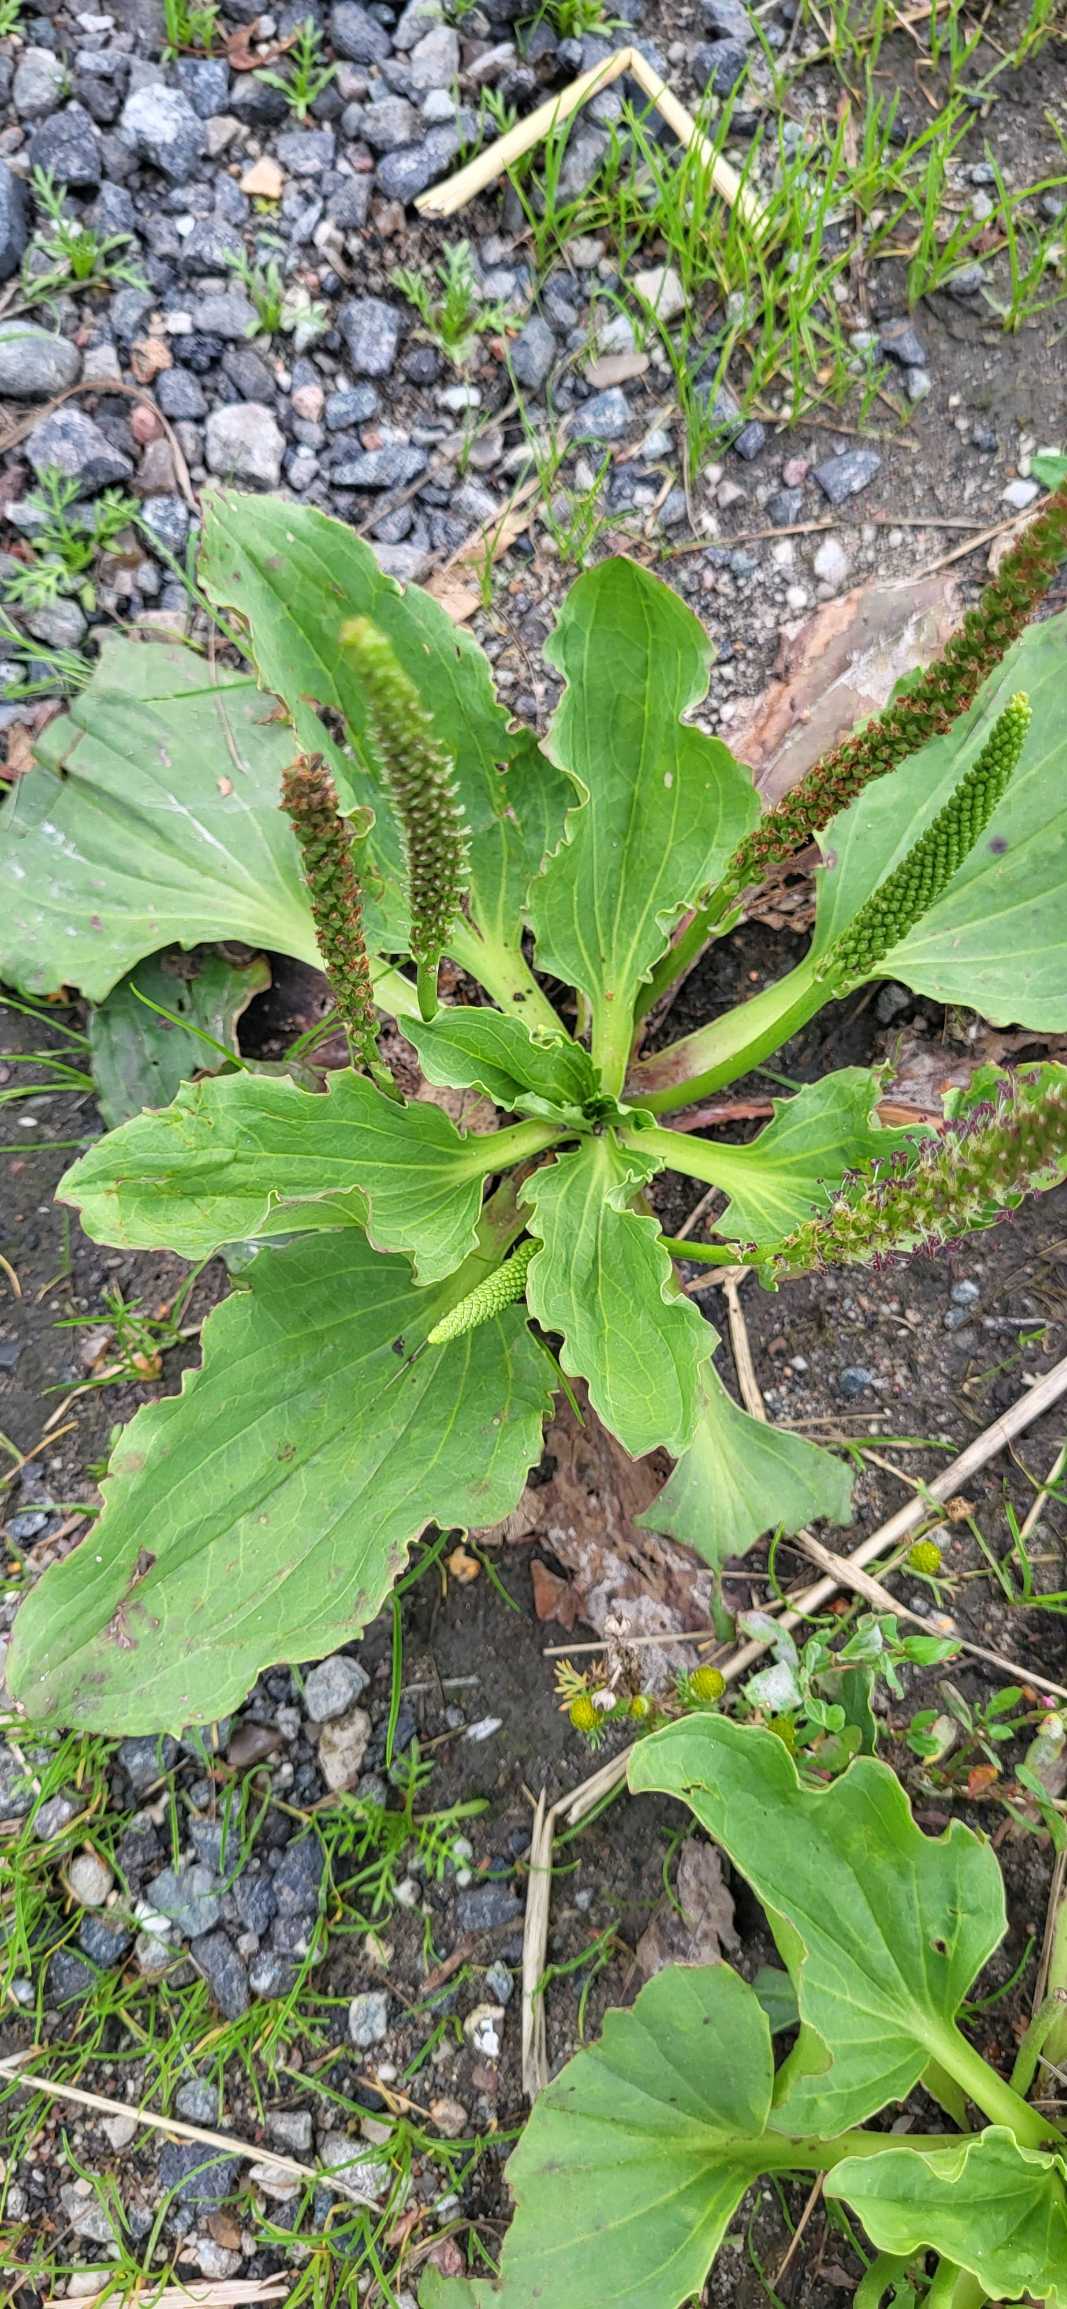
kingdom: Plantae
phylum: Tracheophyta
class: Magnoliopsida
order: Lamiales
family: Plantaginaceae
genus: Plantago
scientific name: Plantago major
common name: Glat vejbred
